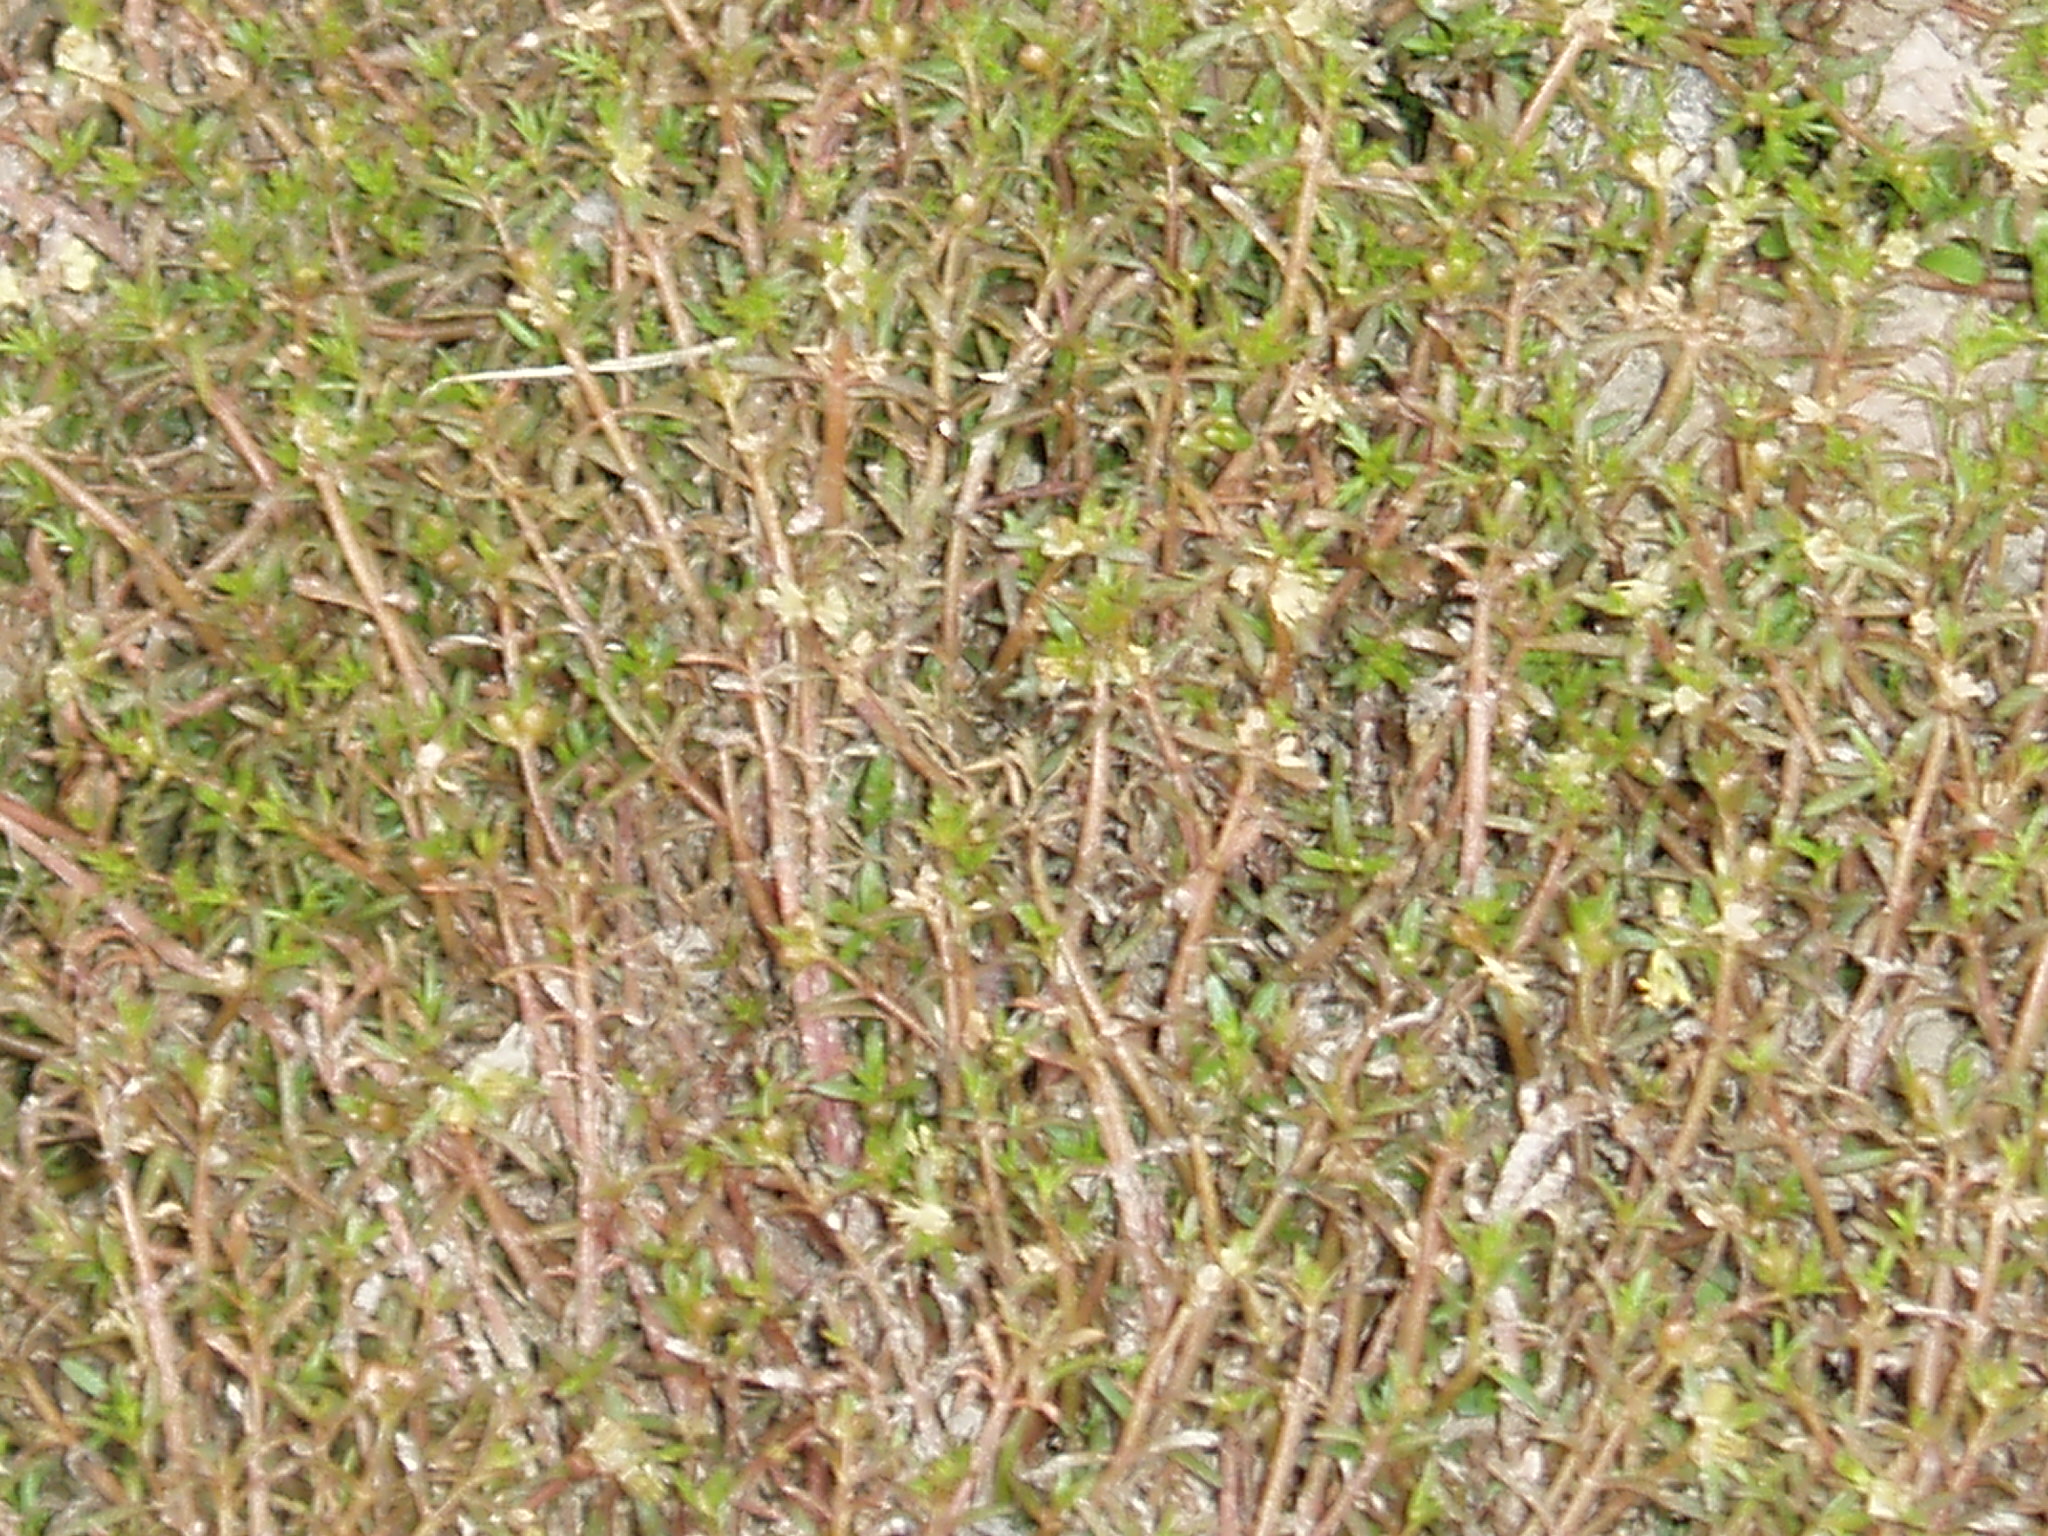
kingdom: Plantae
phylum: Tracheophyta
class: Magnoliopsida
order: Saxifragales
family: Haloragaceae
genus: Myriophyllum
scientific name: Myriophyllum propinquum
